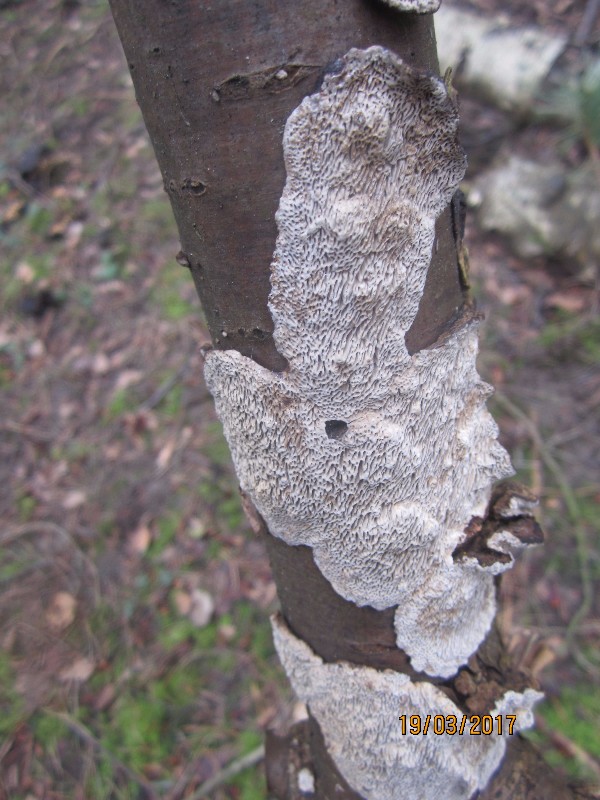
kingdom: Fungi
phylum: Basidiomycota
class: Agaricomycetes
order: Polyporales
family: Polyporaceae
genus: Podofomes
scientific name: Podofomes mollis
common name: blød begporesvamp
